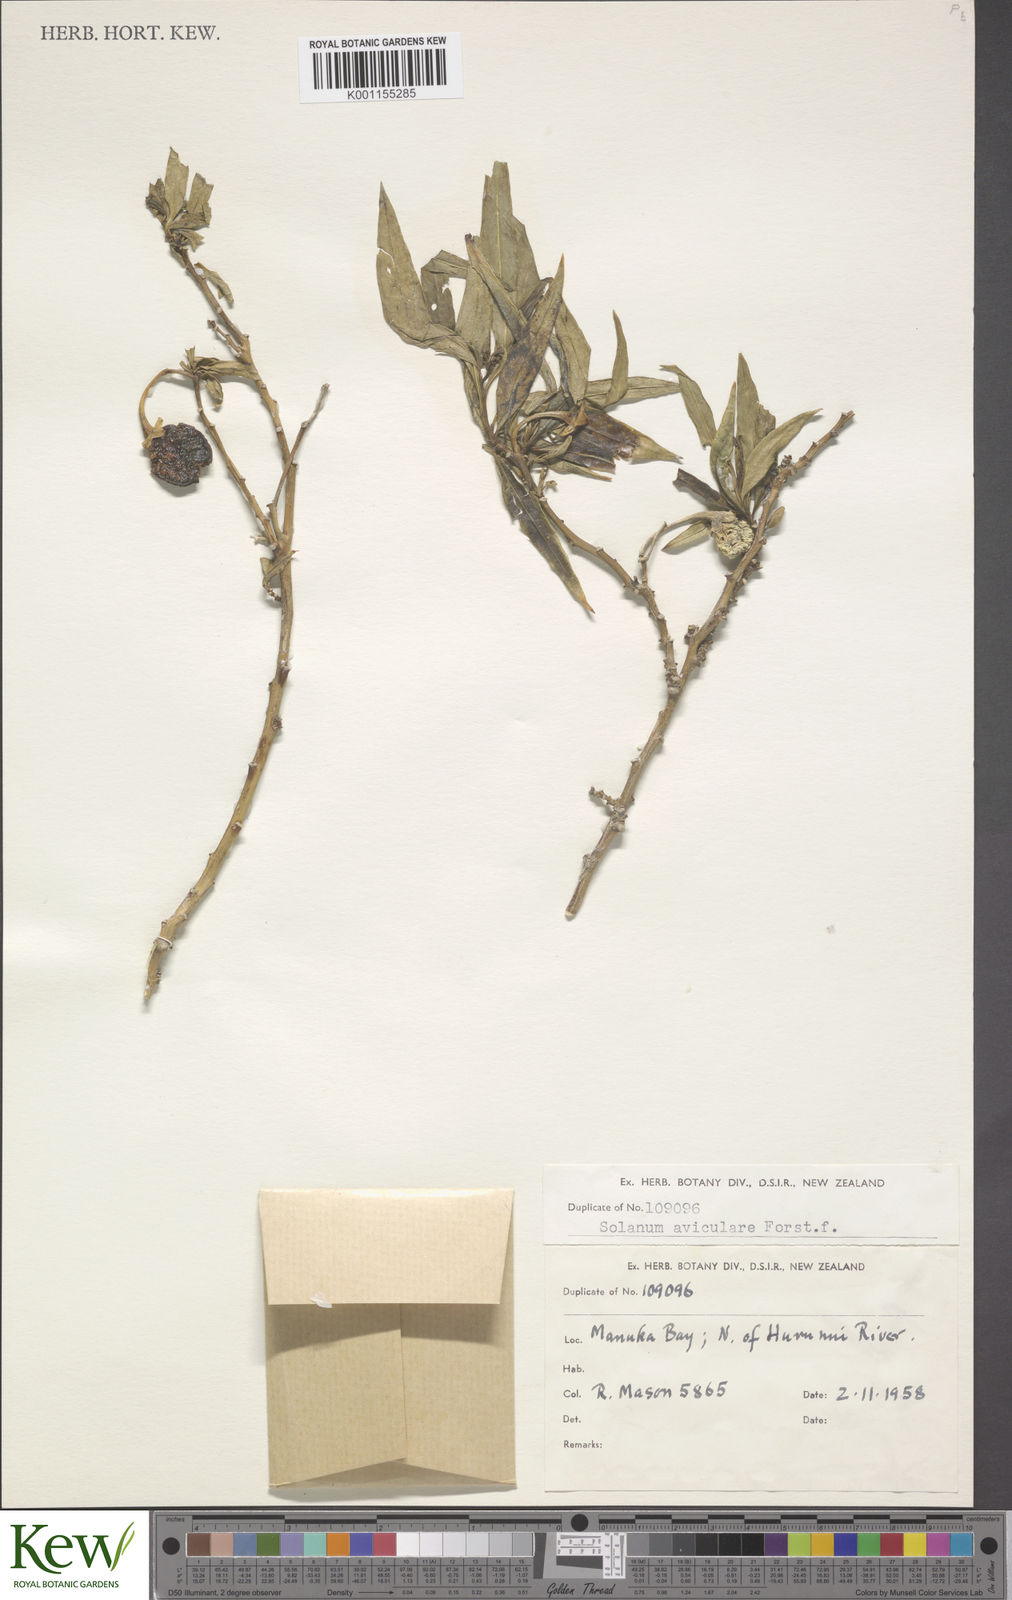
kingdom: Plantae
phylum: Tracheophyta
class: Magnoliopsida
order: Solanales
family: Solanaceae
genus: Solanum
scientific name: Solanum aviculare
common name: New zealand nightshade
